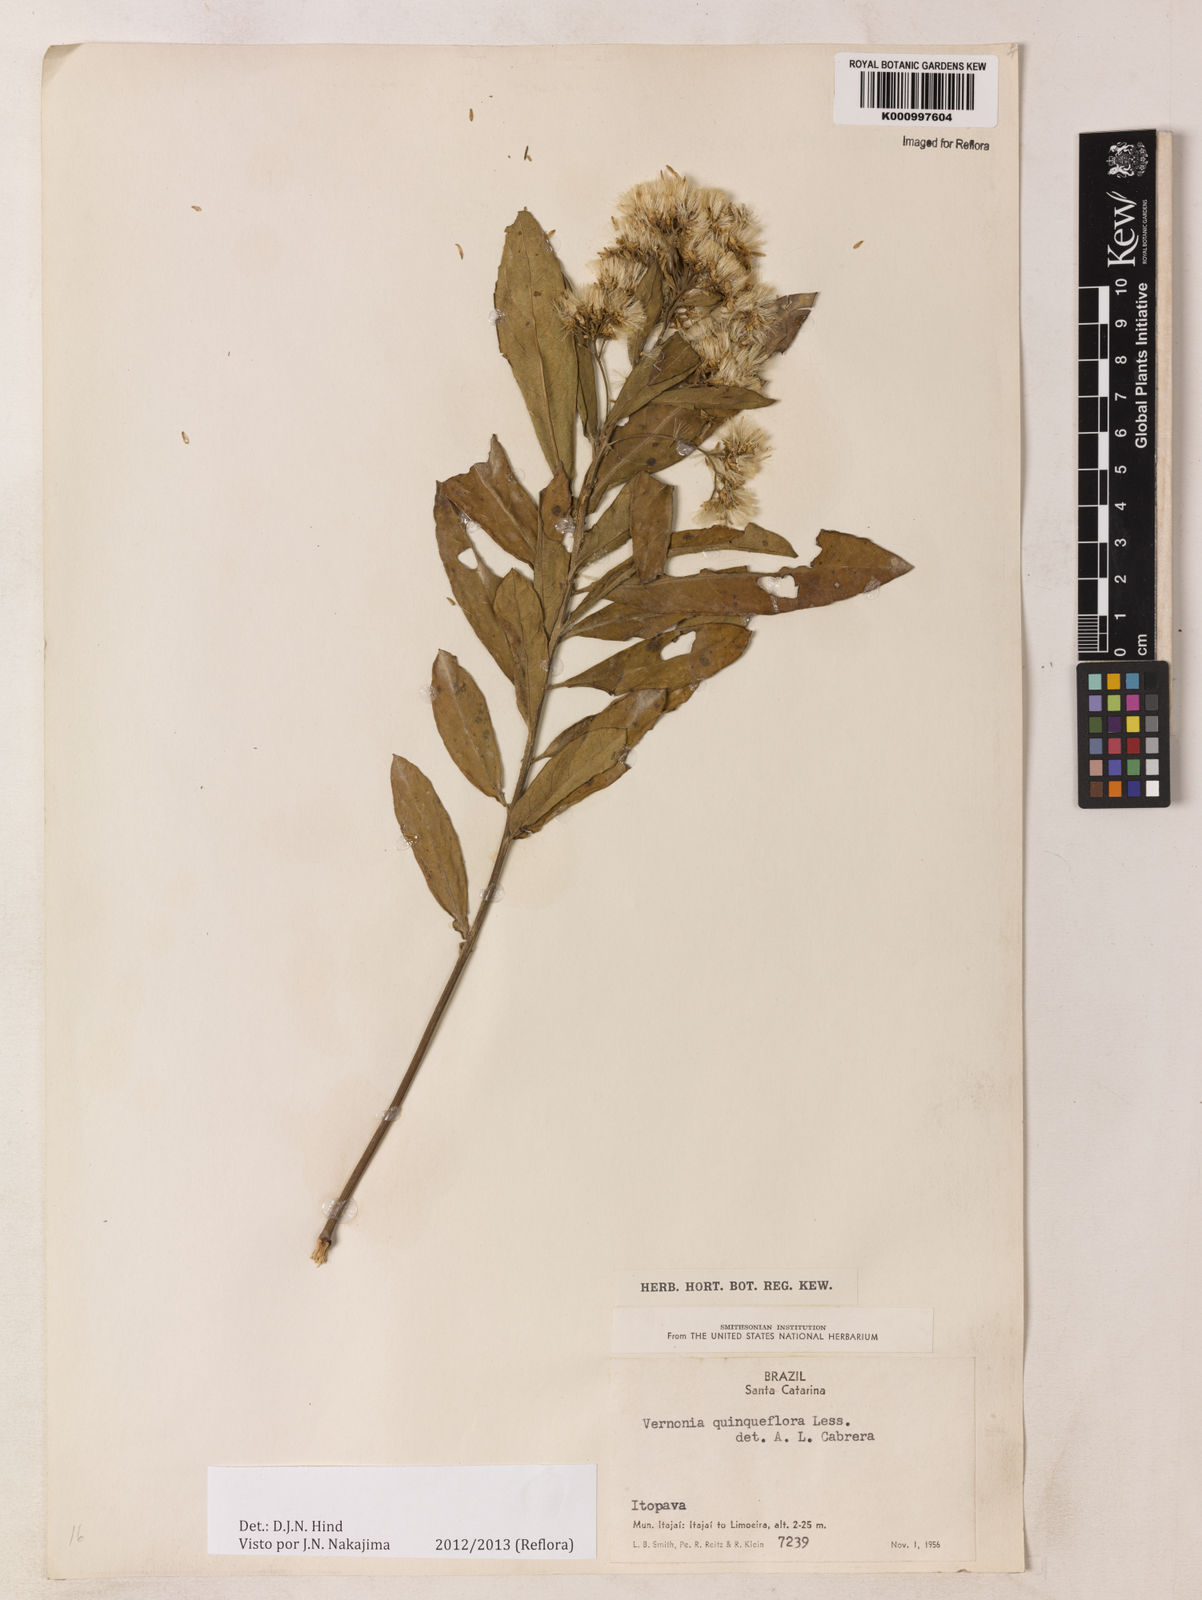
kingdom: Plantae
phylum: Tracheophyta
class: Magnoliopsida
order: Asterales
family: Asteraceae
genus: Critoniopsis
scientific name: Critoniopsis quinqueflora
